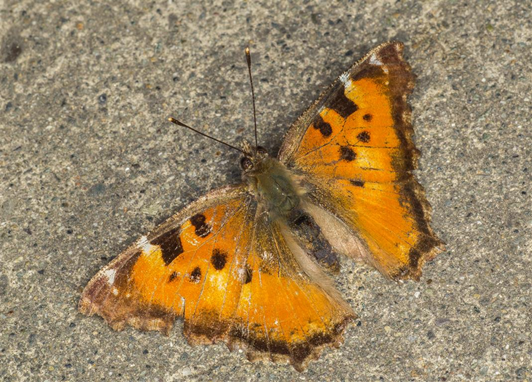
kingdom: Animalia
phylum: Arthropoda
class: Insecta
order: Lepidoptera
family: Nymphalidae
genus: Nymphalis
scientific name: Nymphalis californica
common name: California Tortoiseshell
